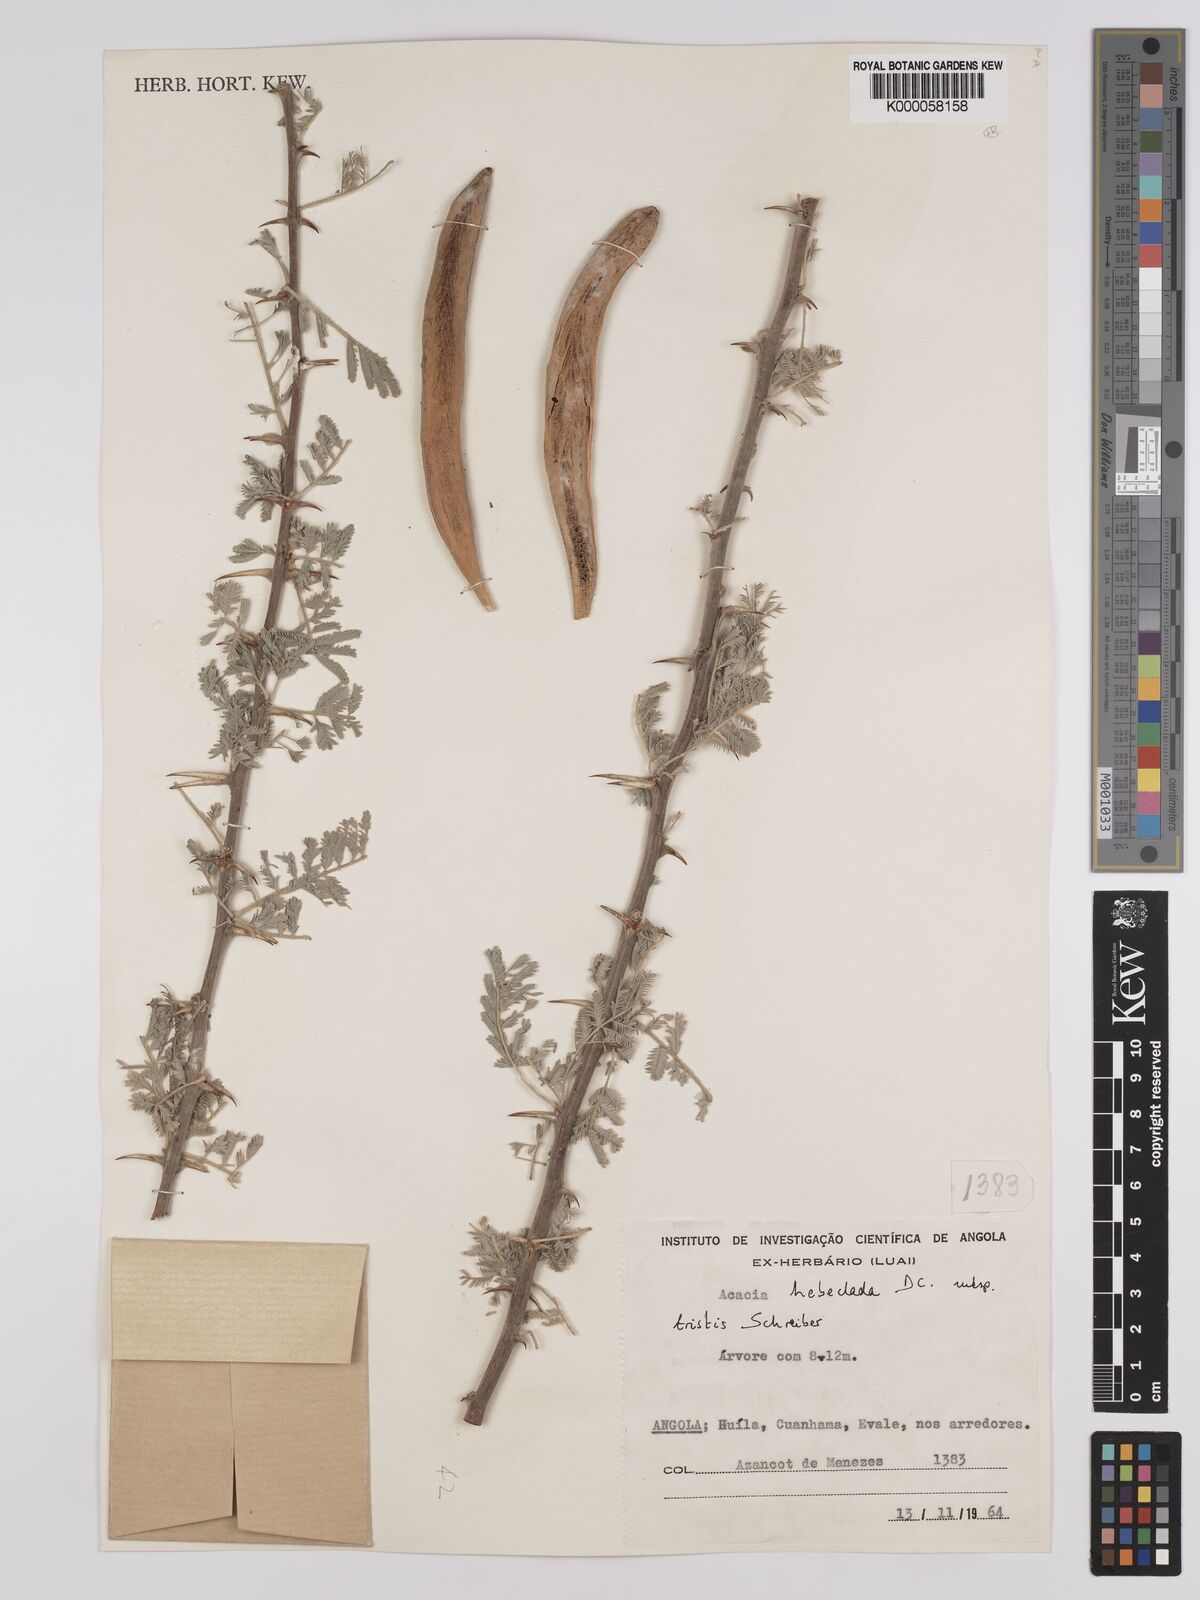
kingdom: Plantae
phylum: Tracheophyta
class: Magnoliopsida
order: Fabales
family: Fabaceae
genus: Vachellia
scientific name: Vachellia hebeclada
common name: Candle thorn
